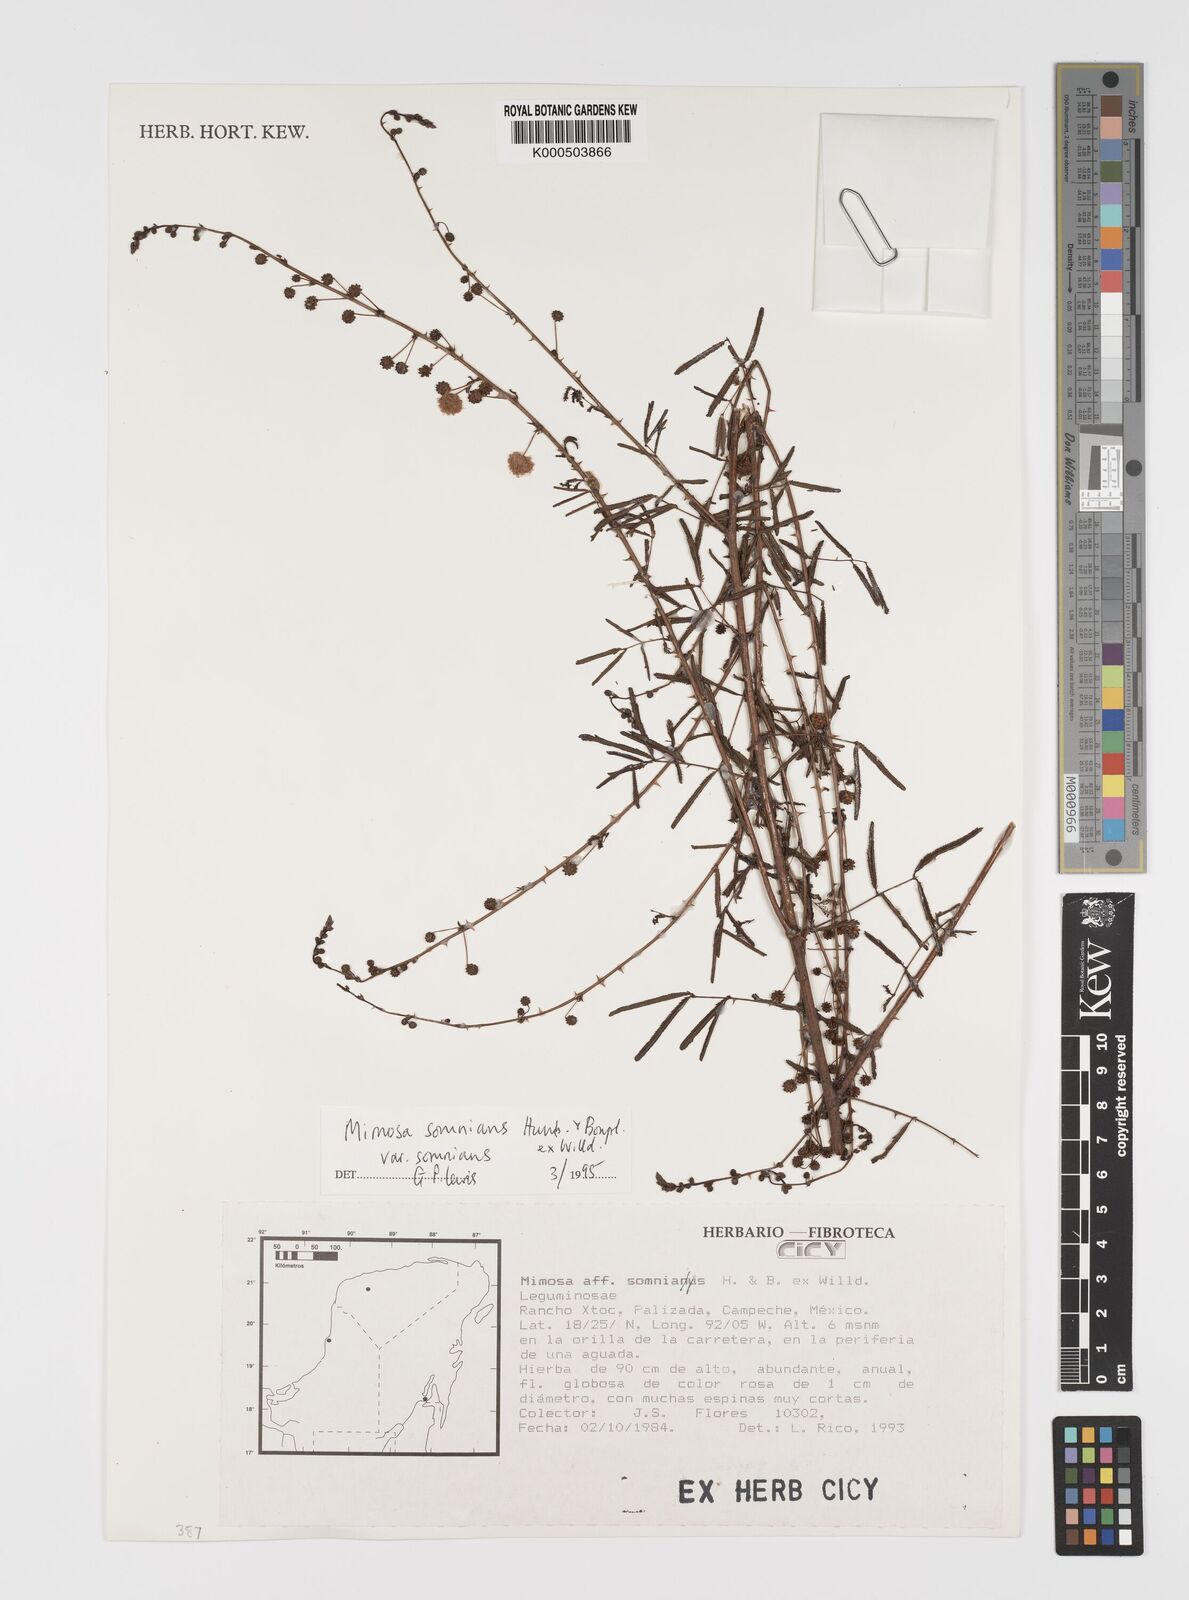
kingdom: Plantae
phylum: Tracheophyta
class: Magnoliopsida
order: Fabales
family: Fabaceae
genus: Mimosa
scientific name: Mimosa somnians
